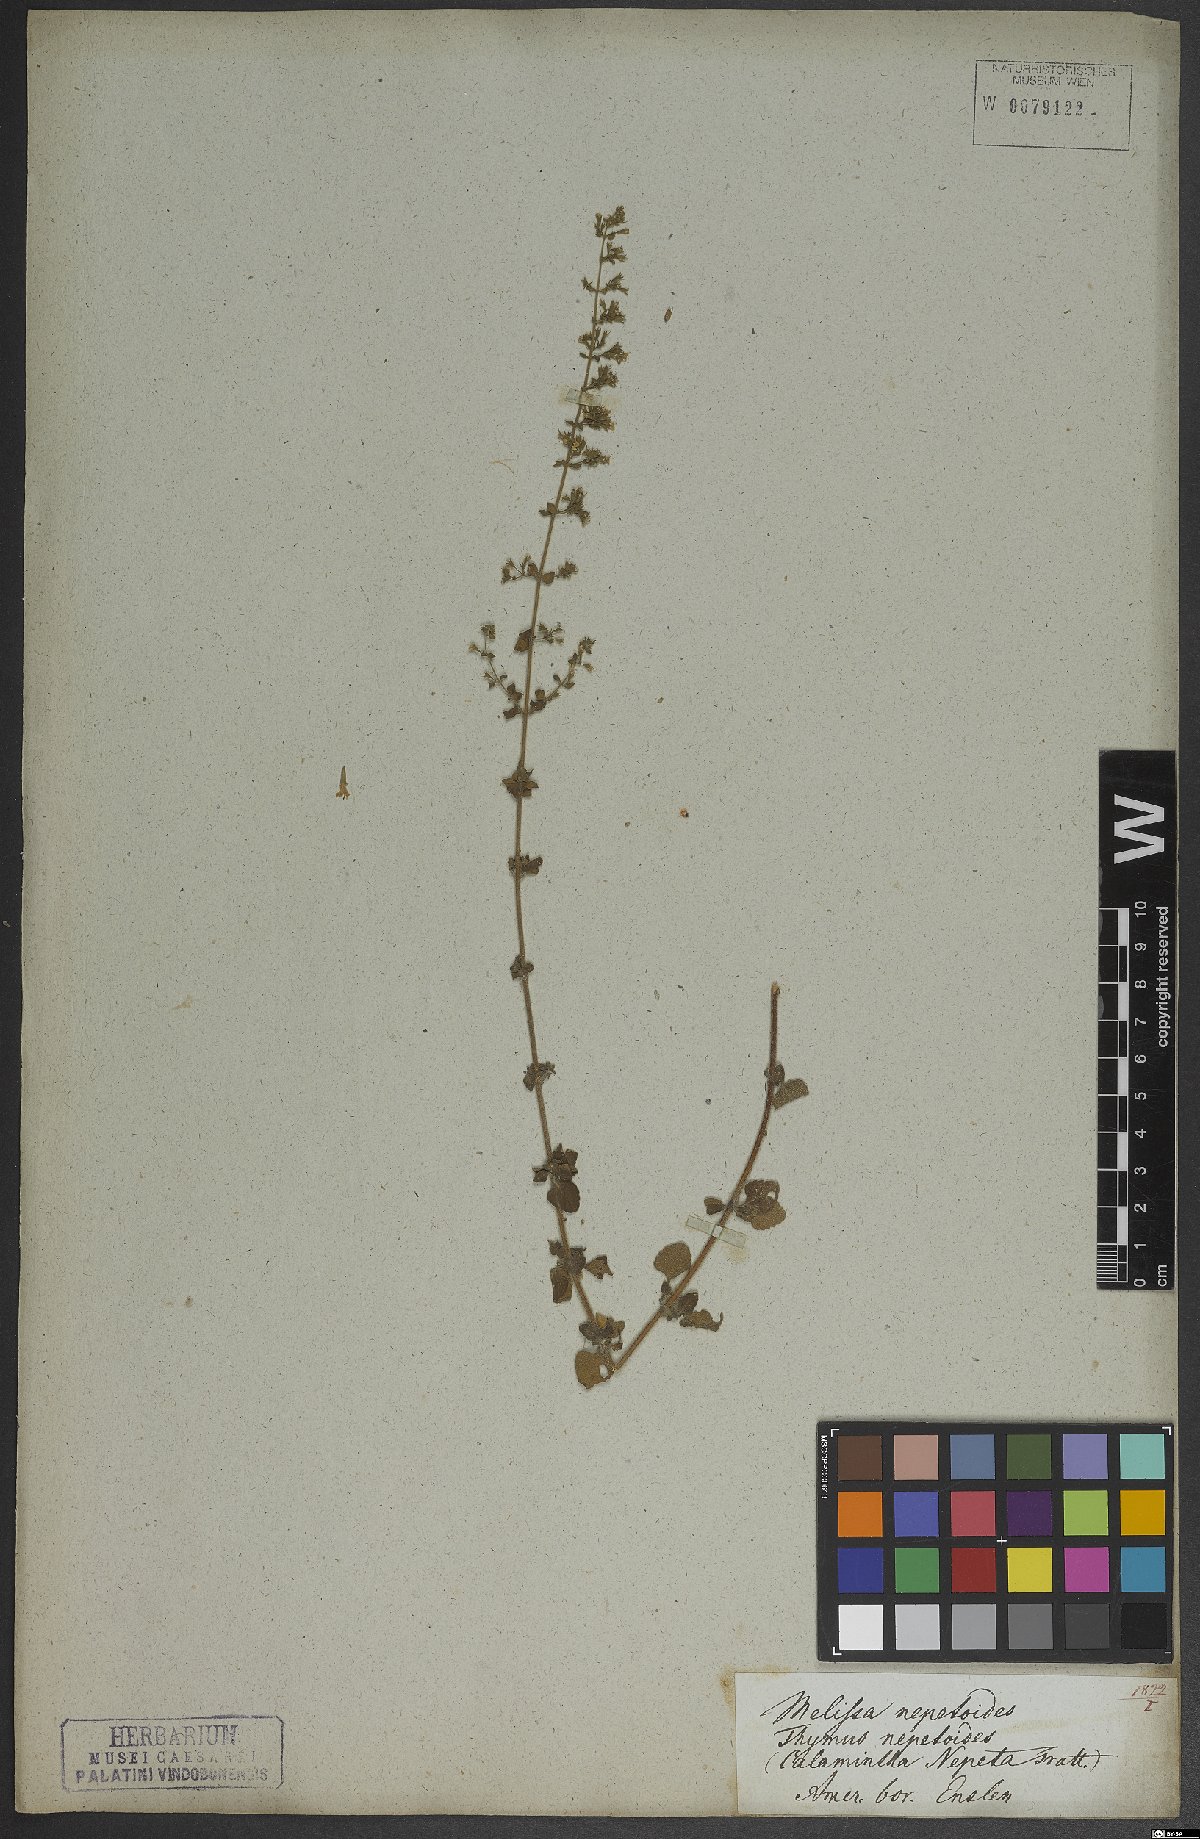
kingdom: Plantae
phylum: Tracheophyta
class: Magnoliopsida
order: Lamiales
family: Lamiaceae
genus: Clinopodium
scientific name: Clinopodium nepeta
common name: Lesser calamint
